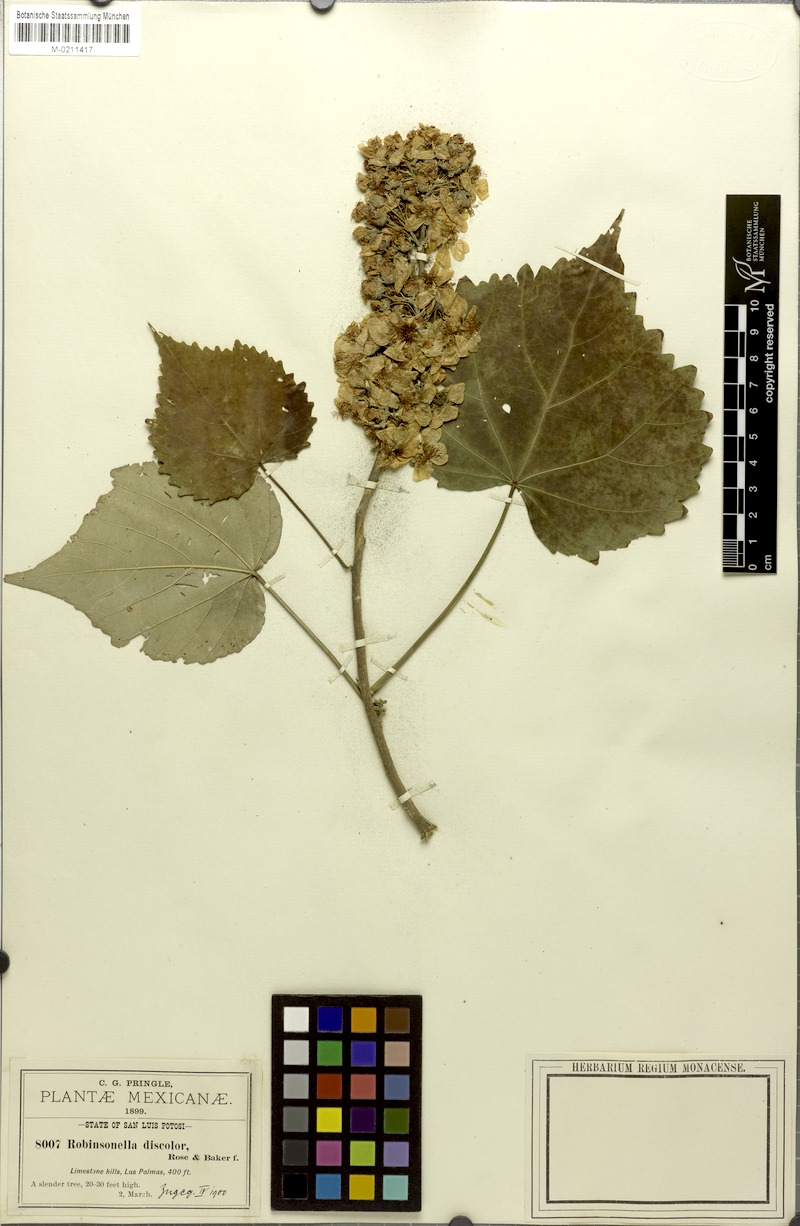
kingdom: Plantae
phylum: Tracheophyta
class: Magnoliopsida
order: Malvales
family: Malvaceae
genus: Robinsonella
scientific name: Robinsonella discolor
